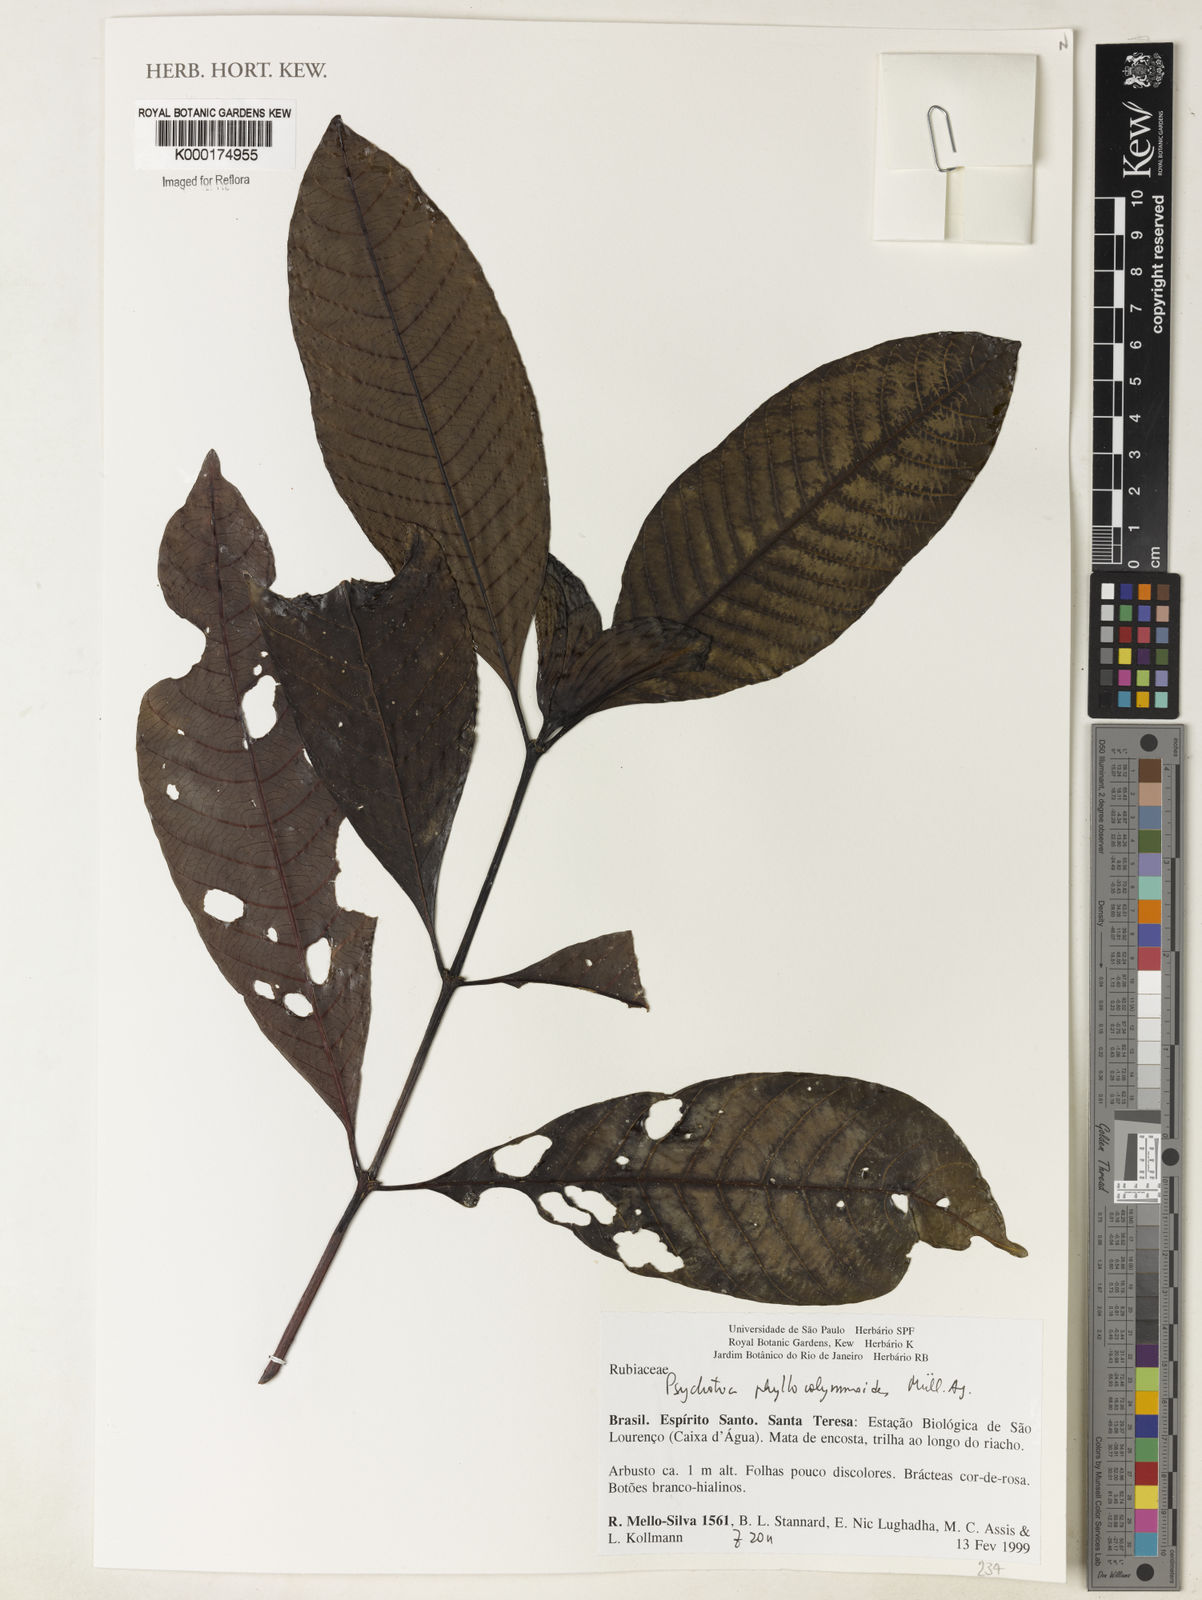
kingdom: Plantae
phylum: Tracheophyta
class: Magnoliopsida
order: Gentianales
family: Rubiaceae
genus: Psychotria
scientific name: Psychotria
